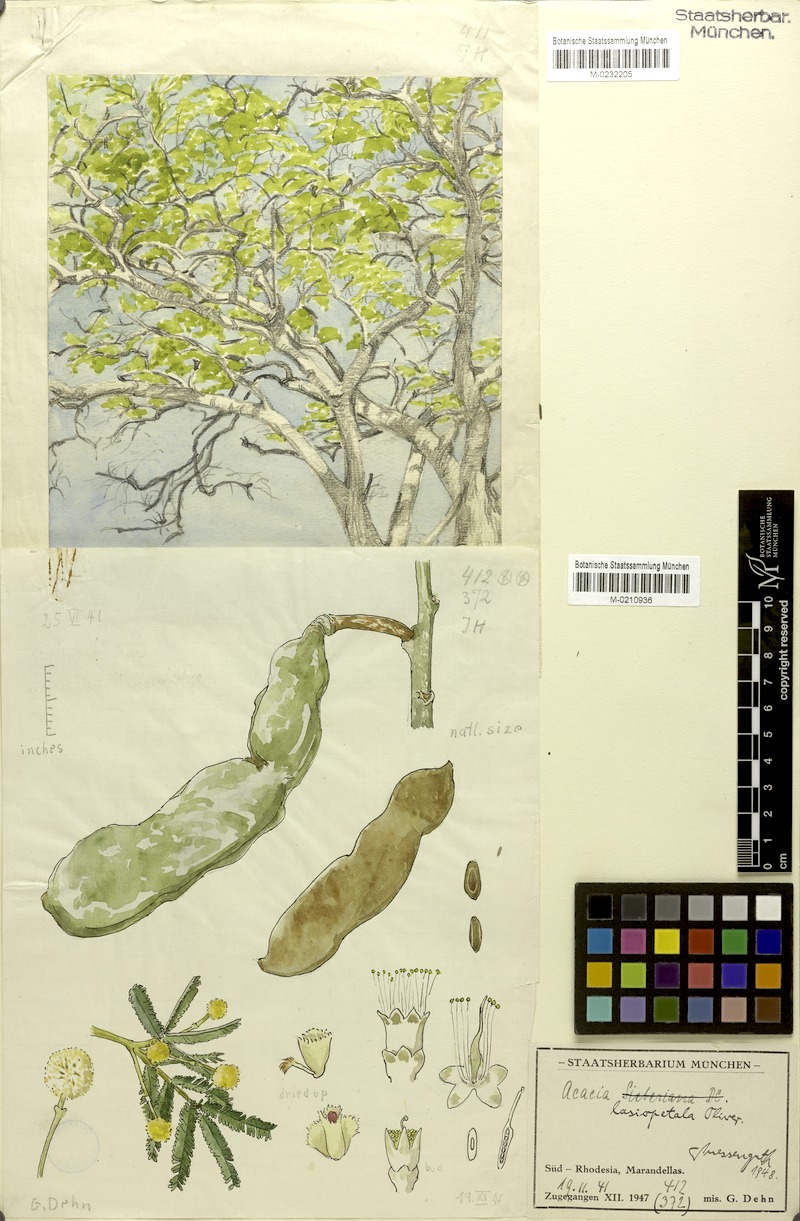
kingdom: Plantae
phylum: Tracheophyta
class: Magnoliopsida
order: Fabales
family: Fabaceae
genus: Vachellia
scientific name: Vachellia lasiopetala
